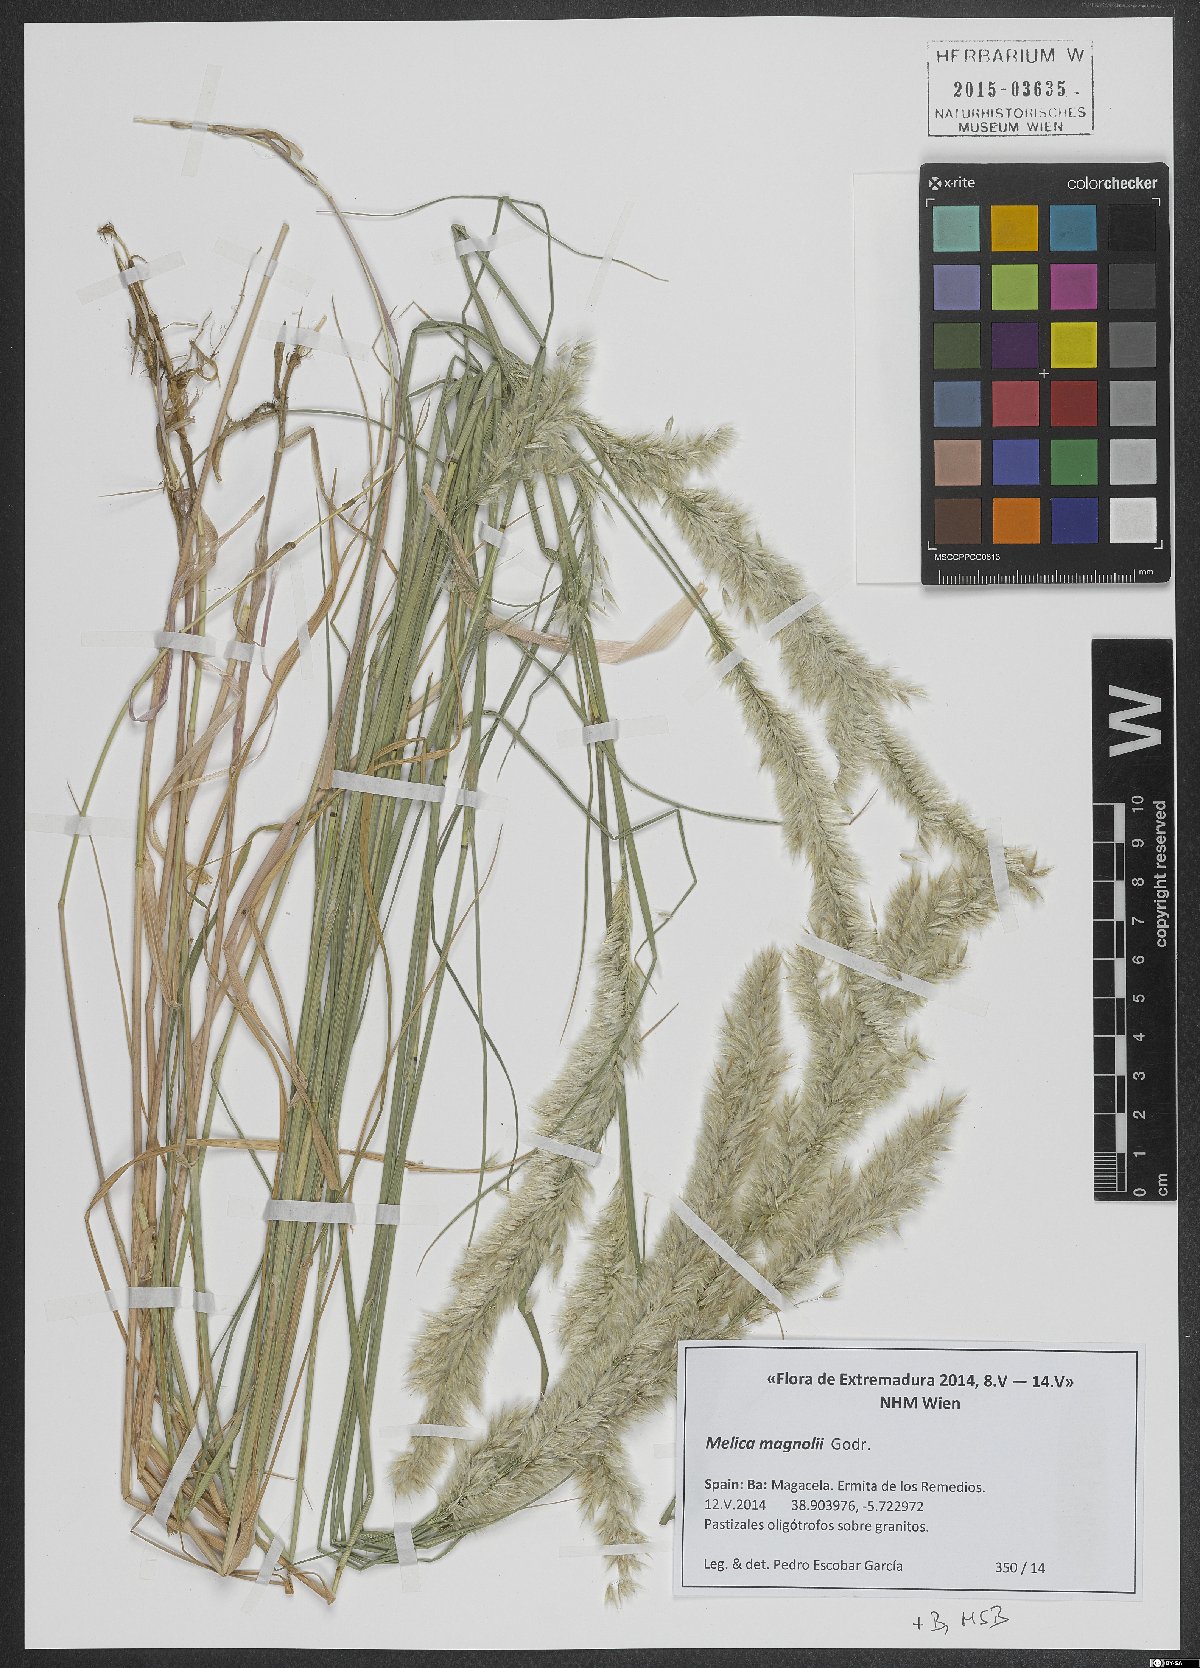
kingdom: Plantae
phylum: Tracheophyta
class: Liliopsida
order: Poales
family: Poaceae
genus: Melica
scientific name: Melica ciliata
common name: Hairy melicgrass
